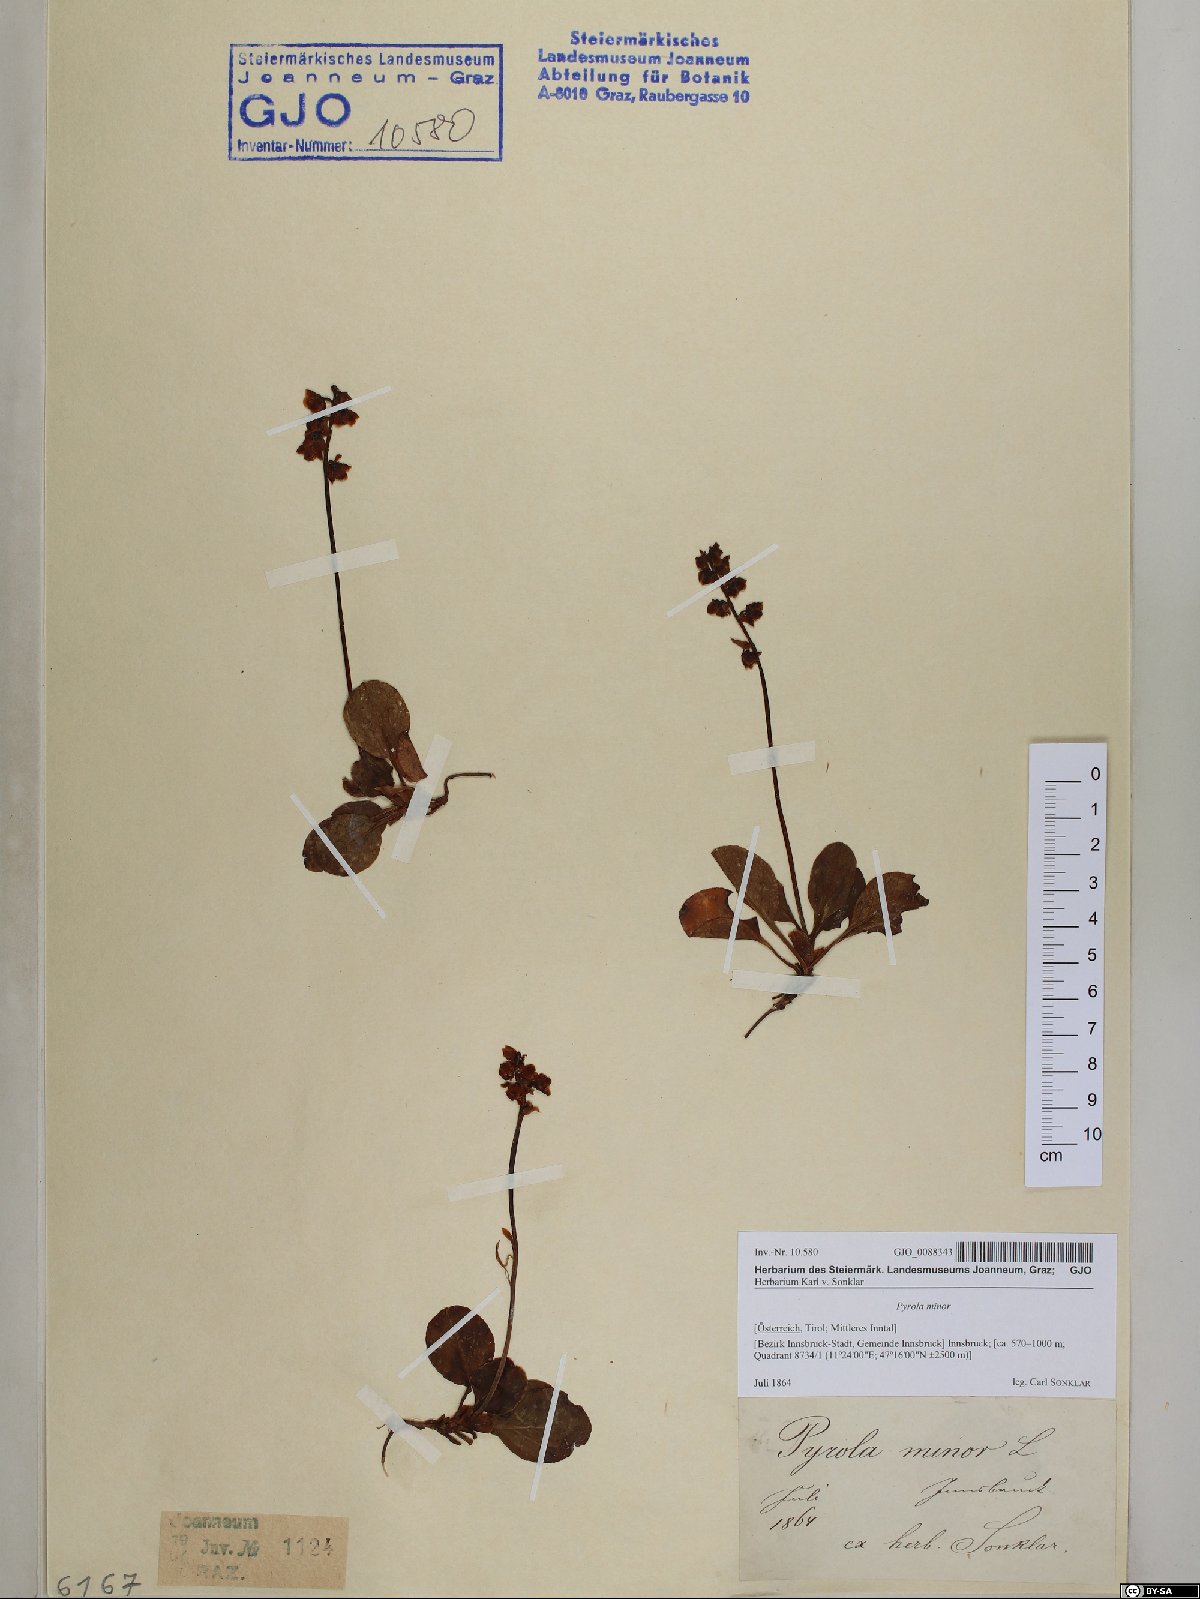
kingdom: Plantae
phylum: Tracheophyta
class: Magnoliopsida
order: Ericales
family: Ericaceae
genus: Pyrola
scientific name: Pyrola minor
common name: Common wintergreen
